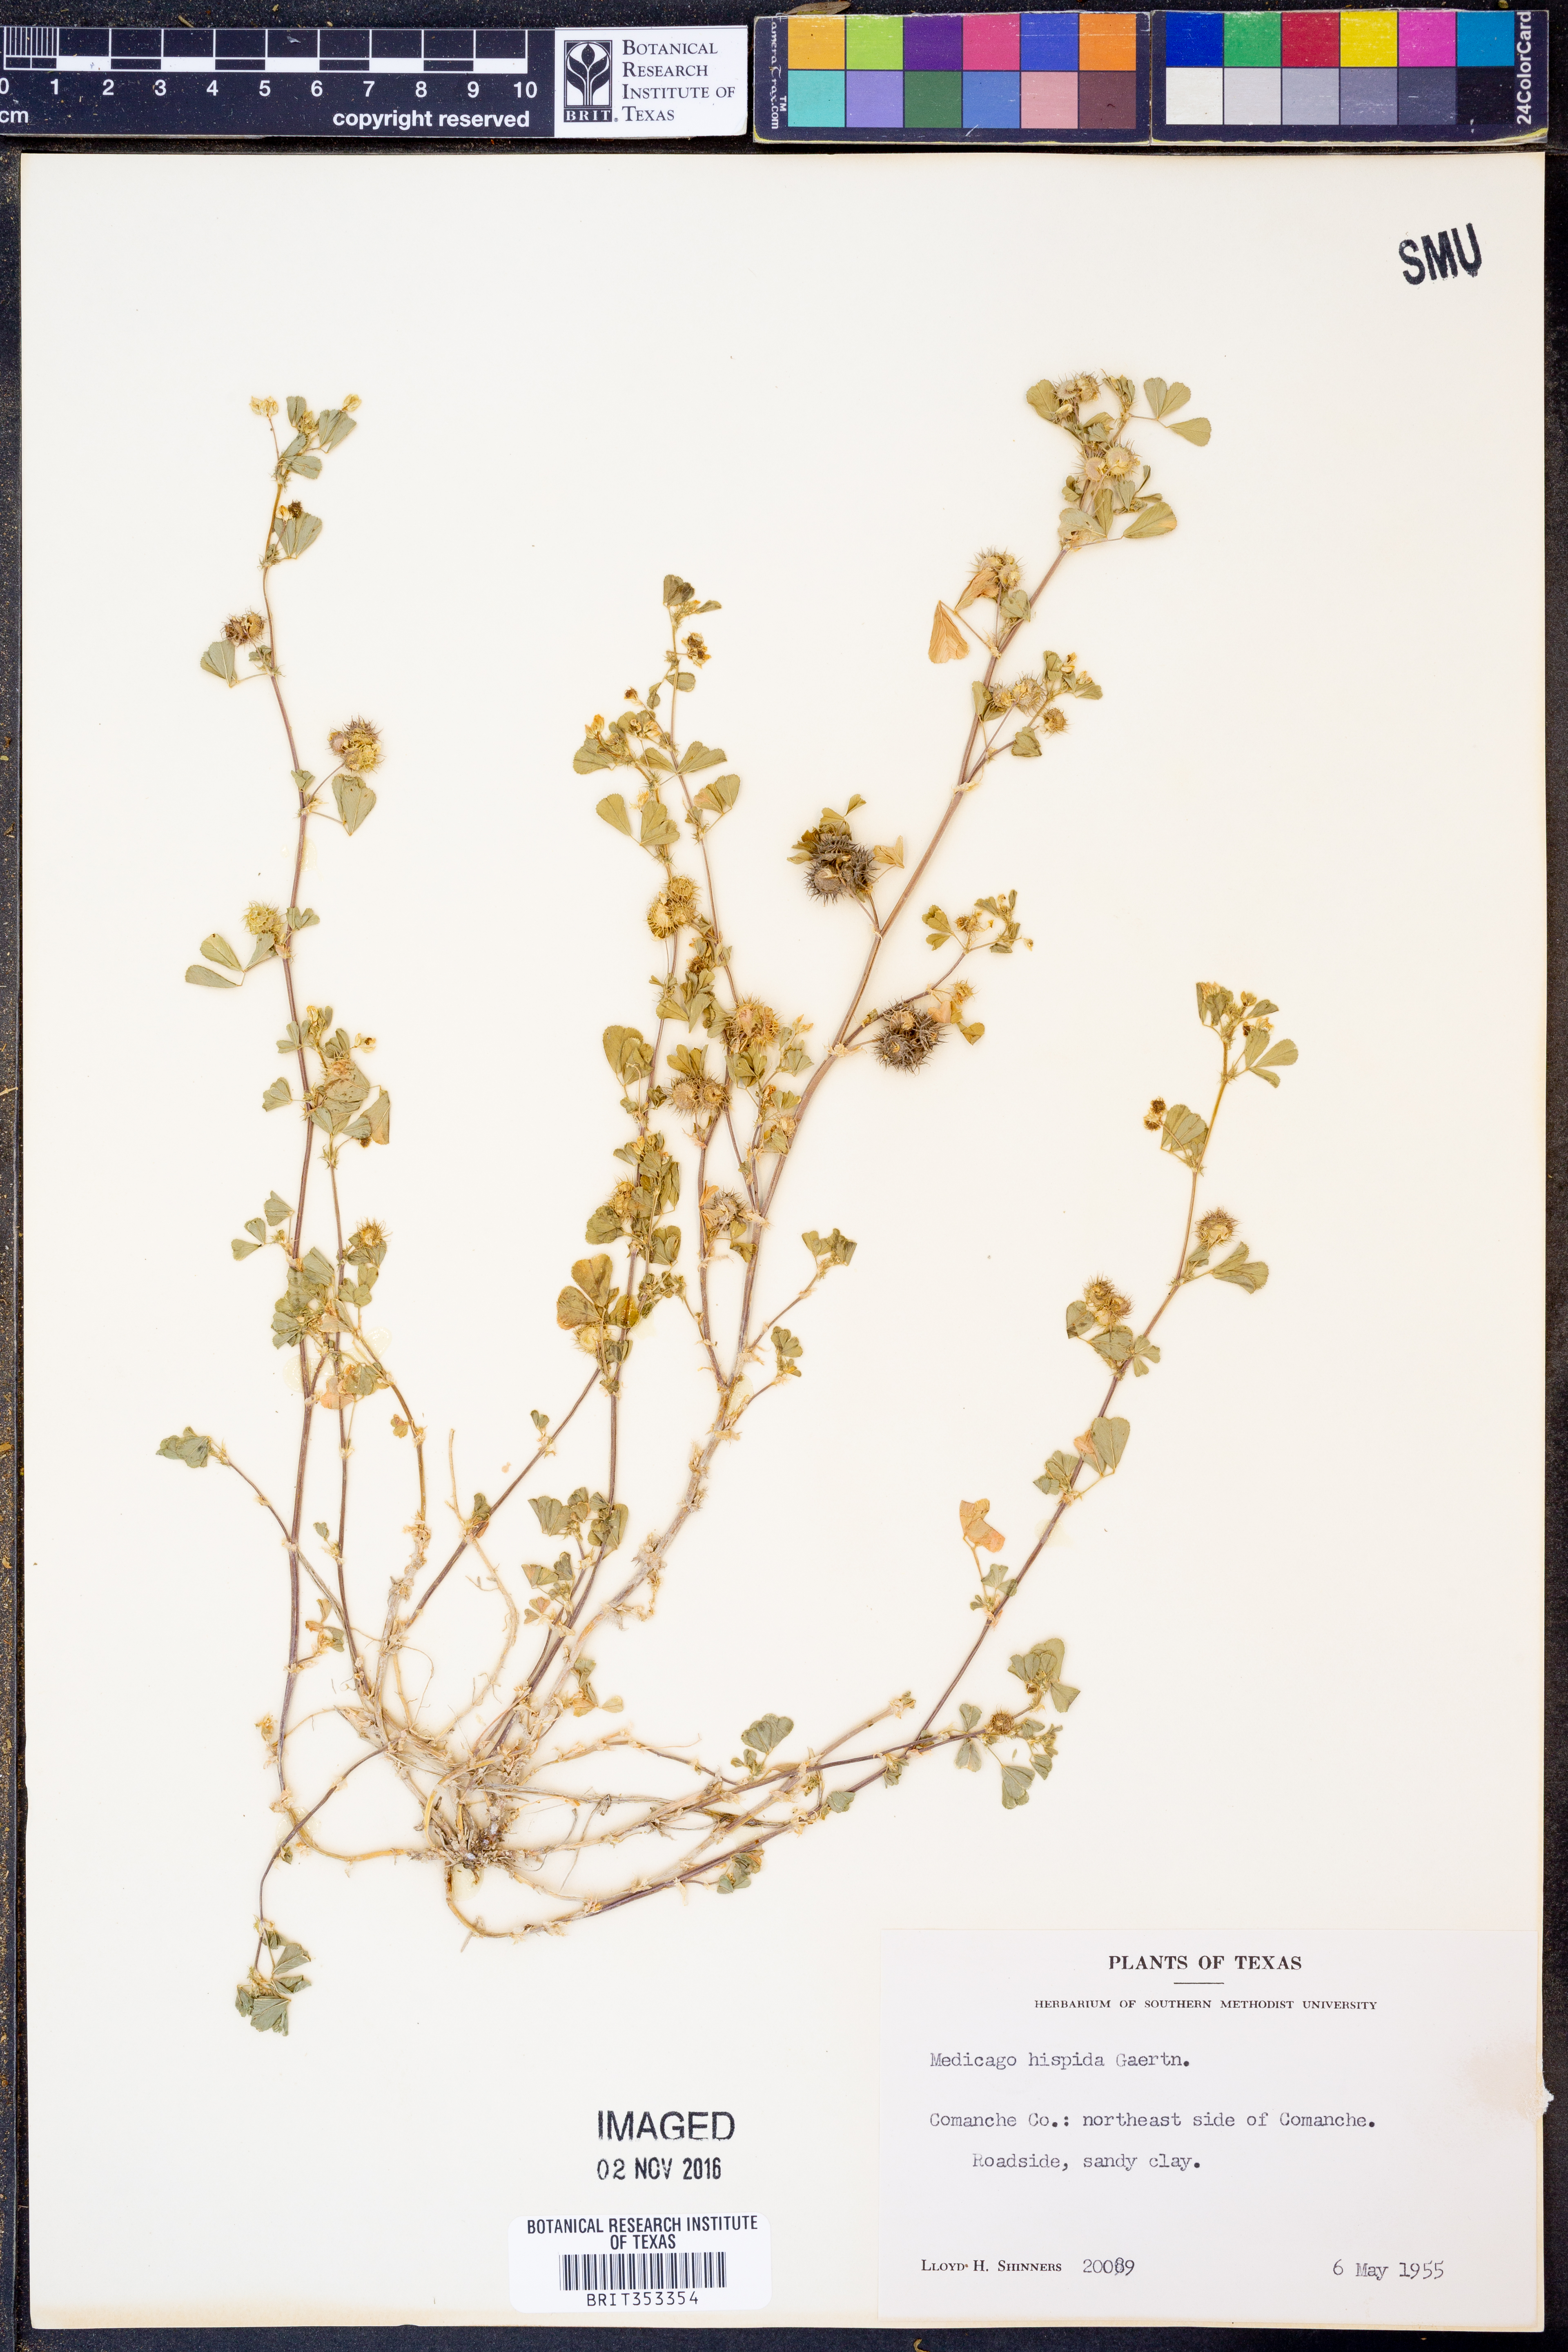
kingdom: Plantae
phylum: Tracheophyta
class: Magnoliopsida
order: Fabales
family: Fabaceae
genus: Medicago
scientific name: Medicago polymorpha
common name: Burclover
